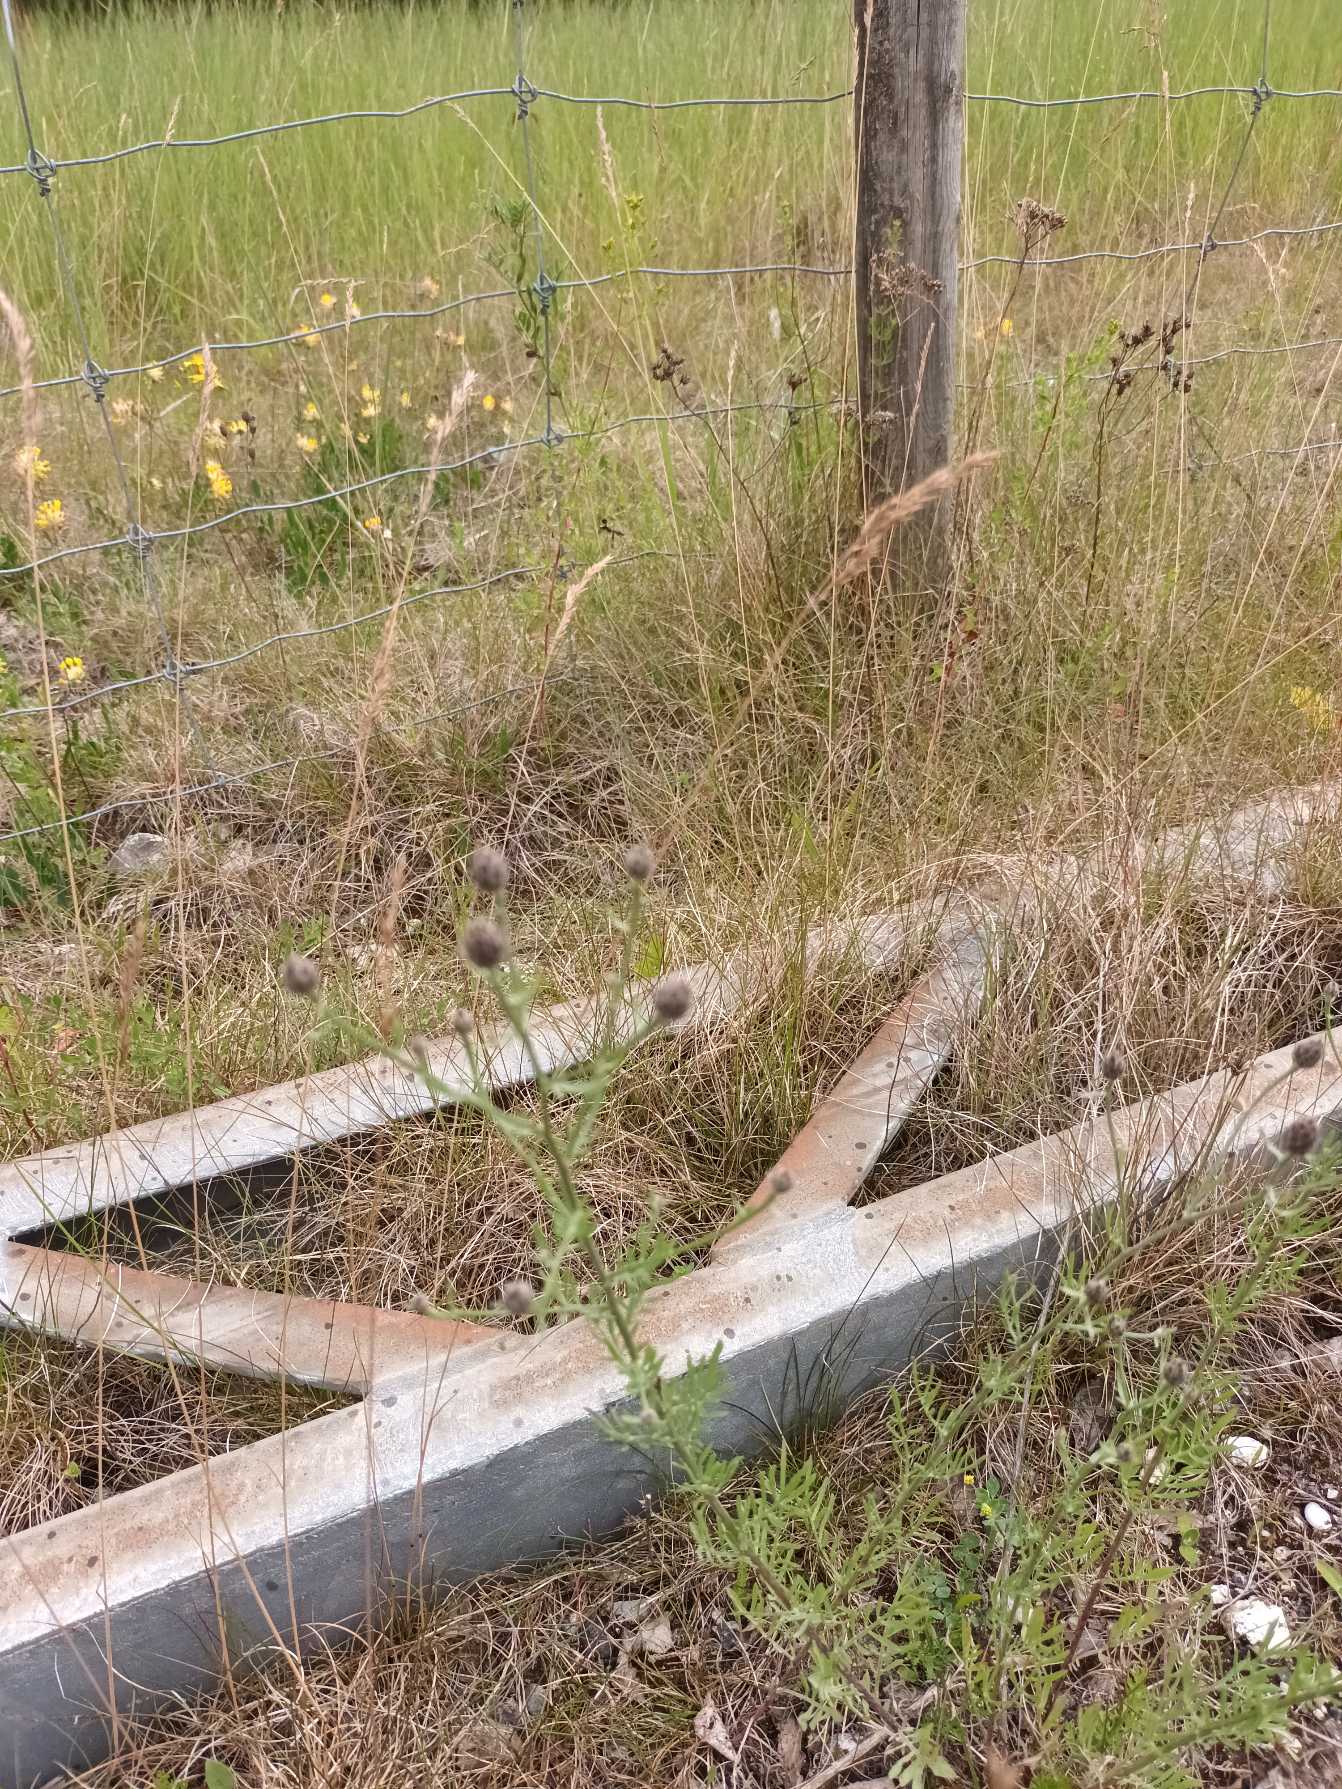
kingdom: Plantae
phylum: Tracheophyta
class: Magnoliopsida
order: Asterales
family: Asteraceae
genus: Centaurea
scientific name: Centaurea stoebe
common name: Mangegrenet knopurt
